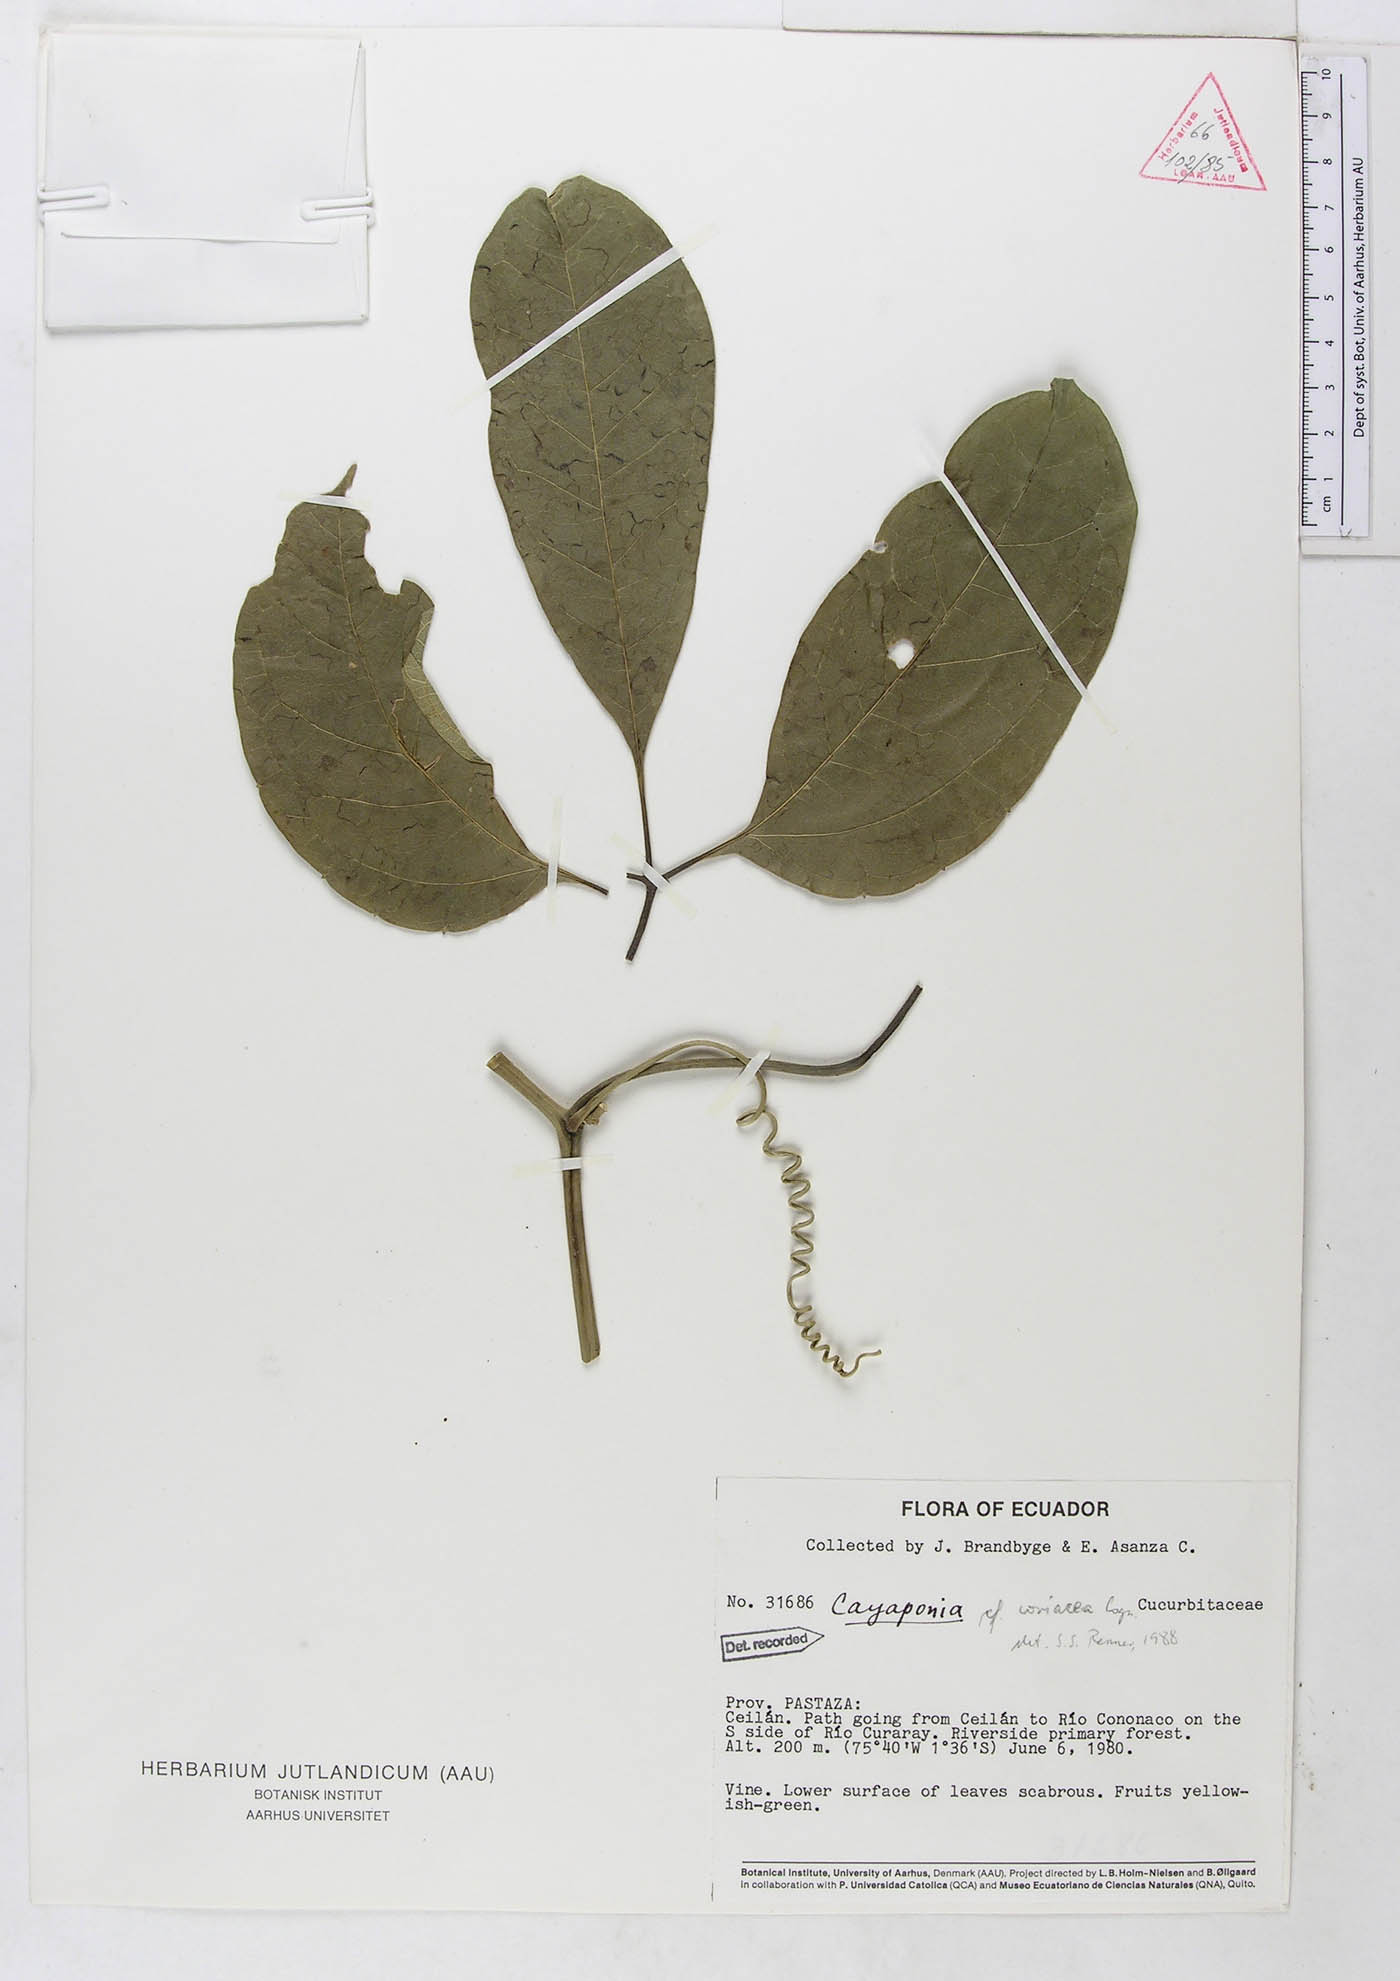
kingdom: Plantae
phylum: Tracheophyta
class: Magnoliopsida
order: Cucurbitales
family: Cucurbitaceae
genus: Cayaponia
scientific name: Cayaponia coriacea
